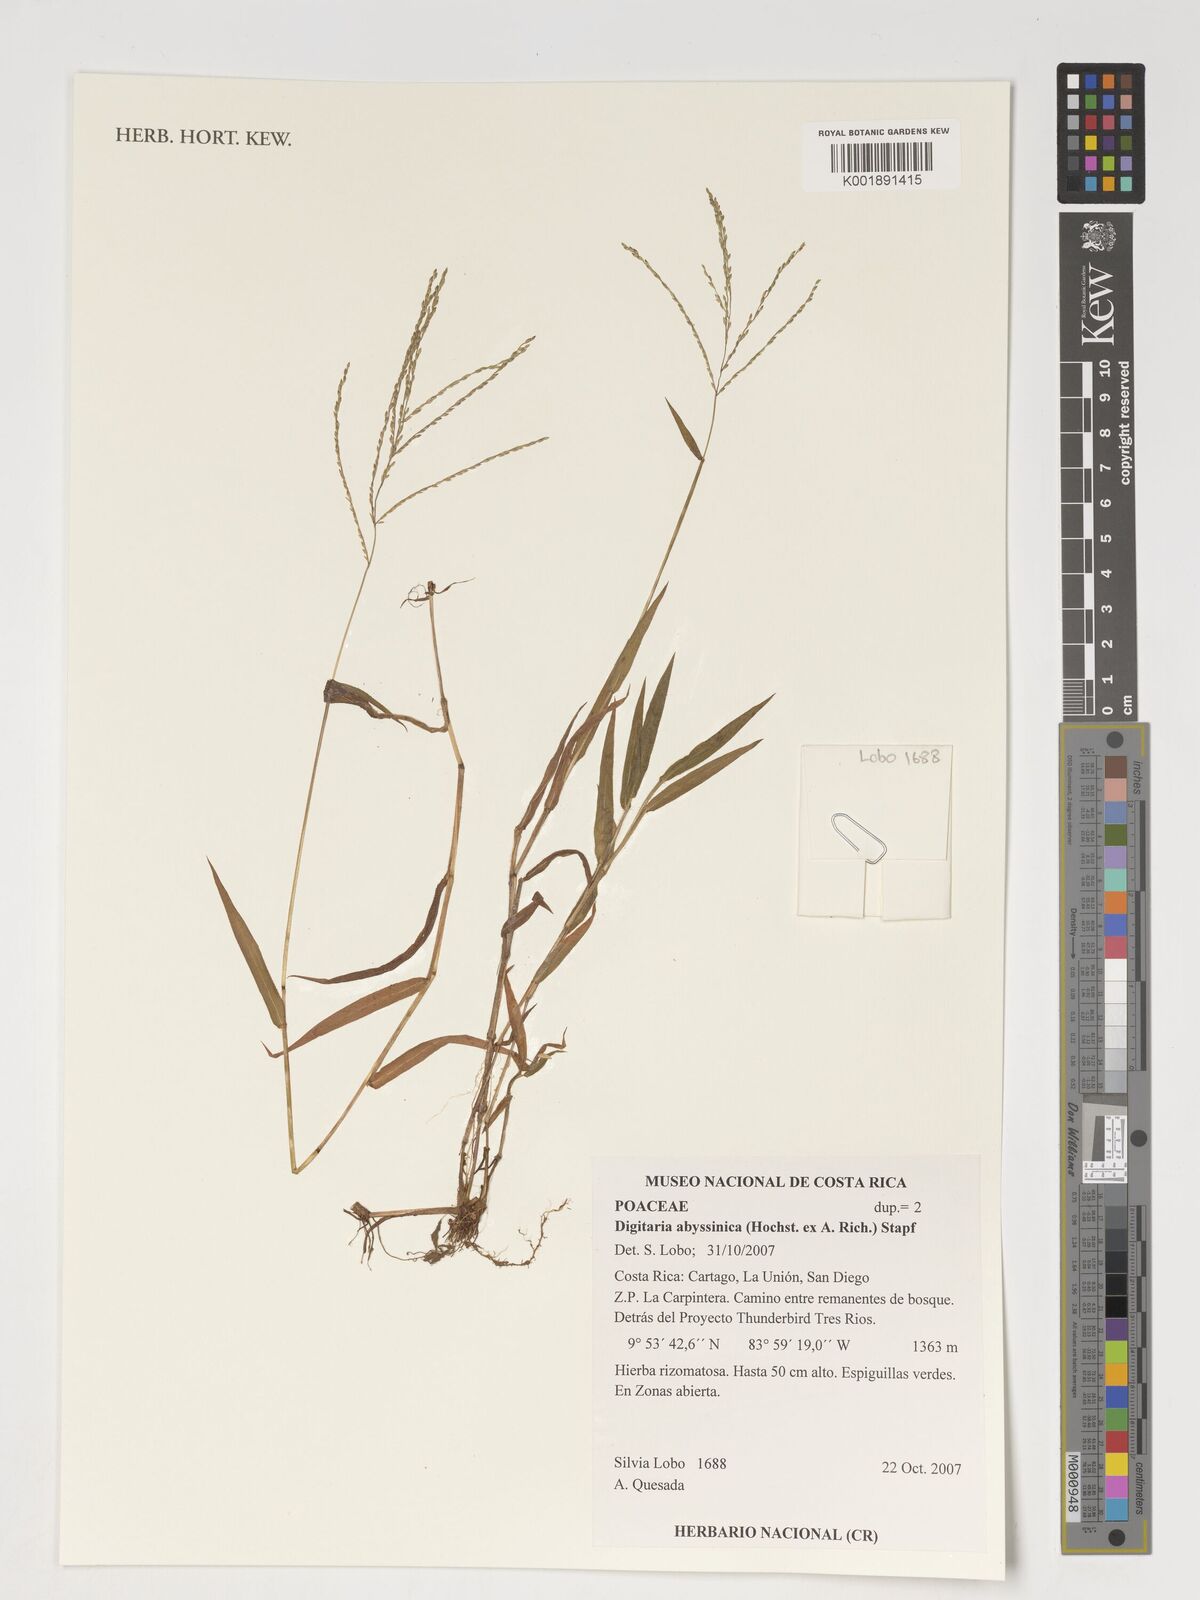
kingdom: Plantae
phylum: Tracheophyta
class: Liliopsida
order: Poales
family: Poaceae
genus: Digitaria
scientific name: Digitaria abyssinica
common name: African couchgrass
